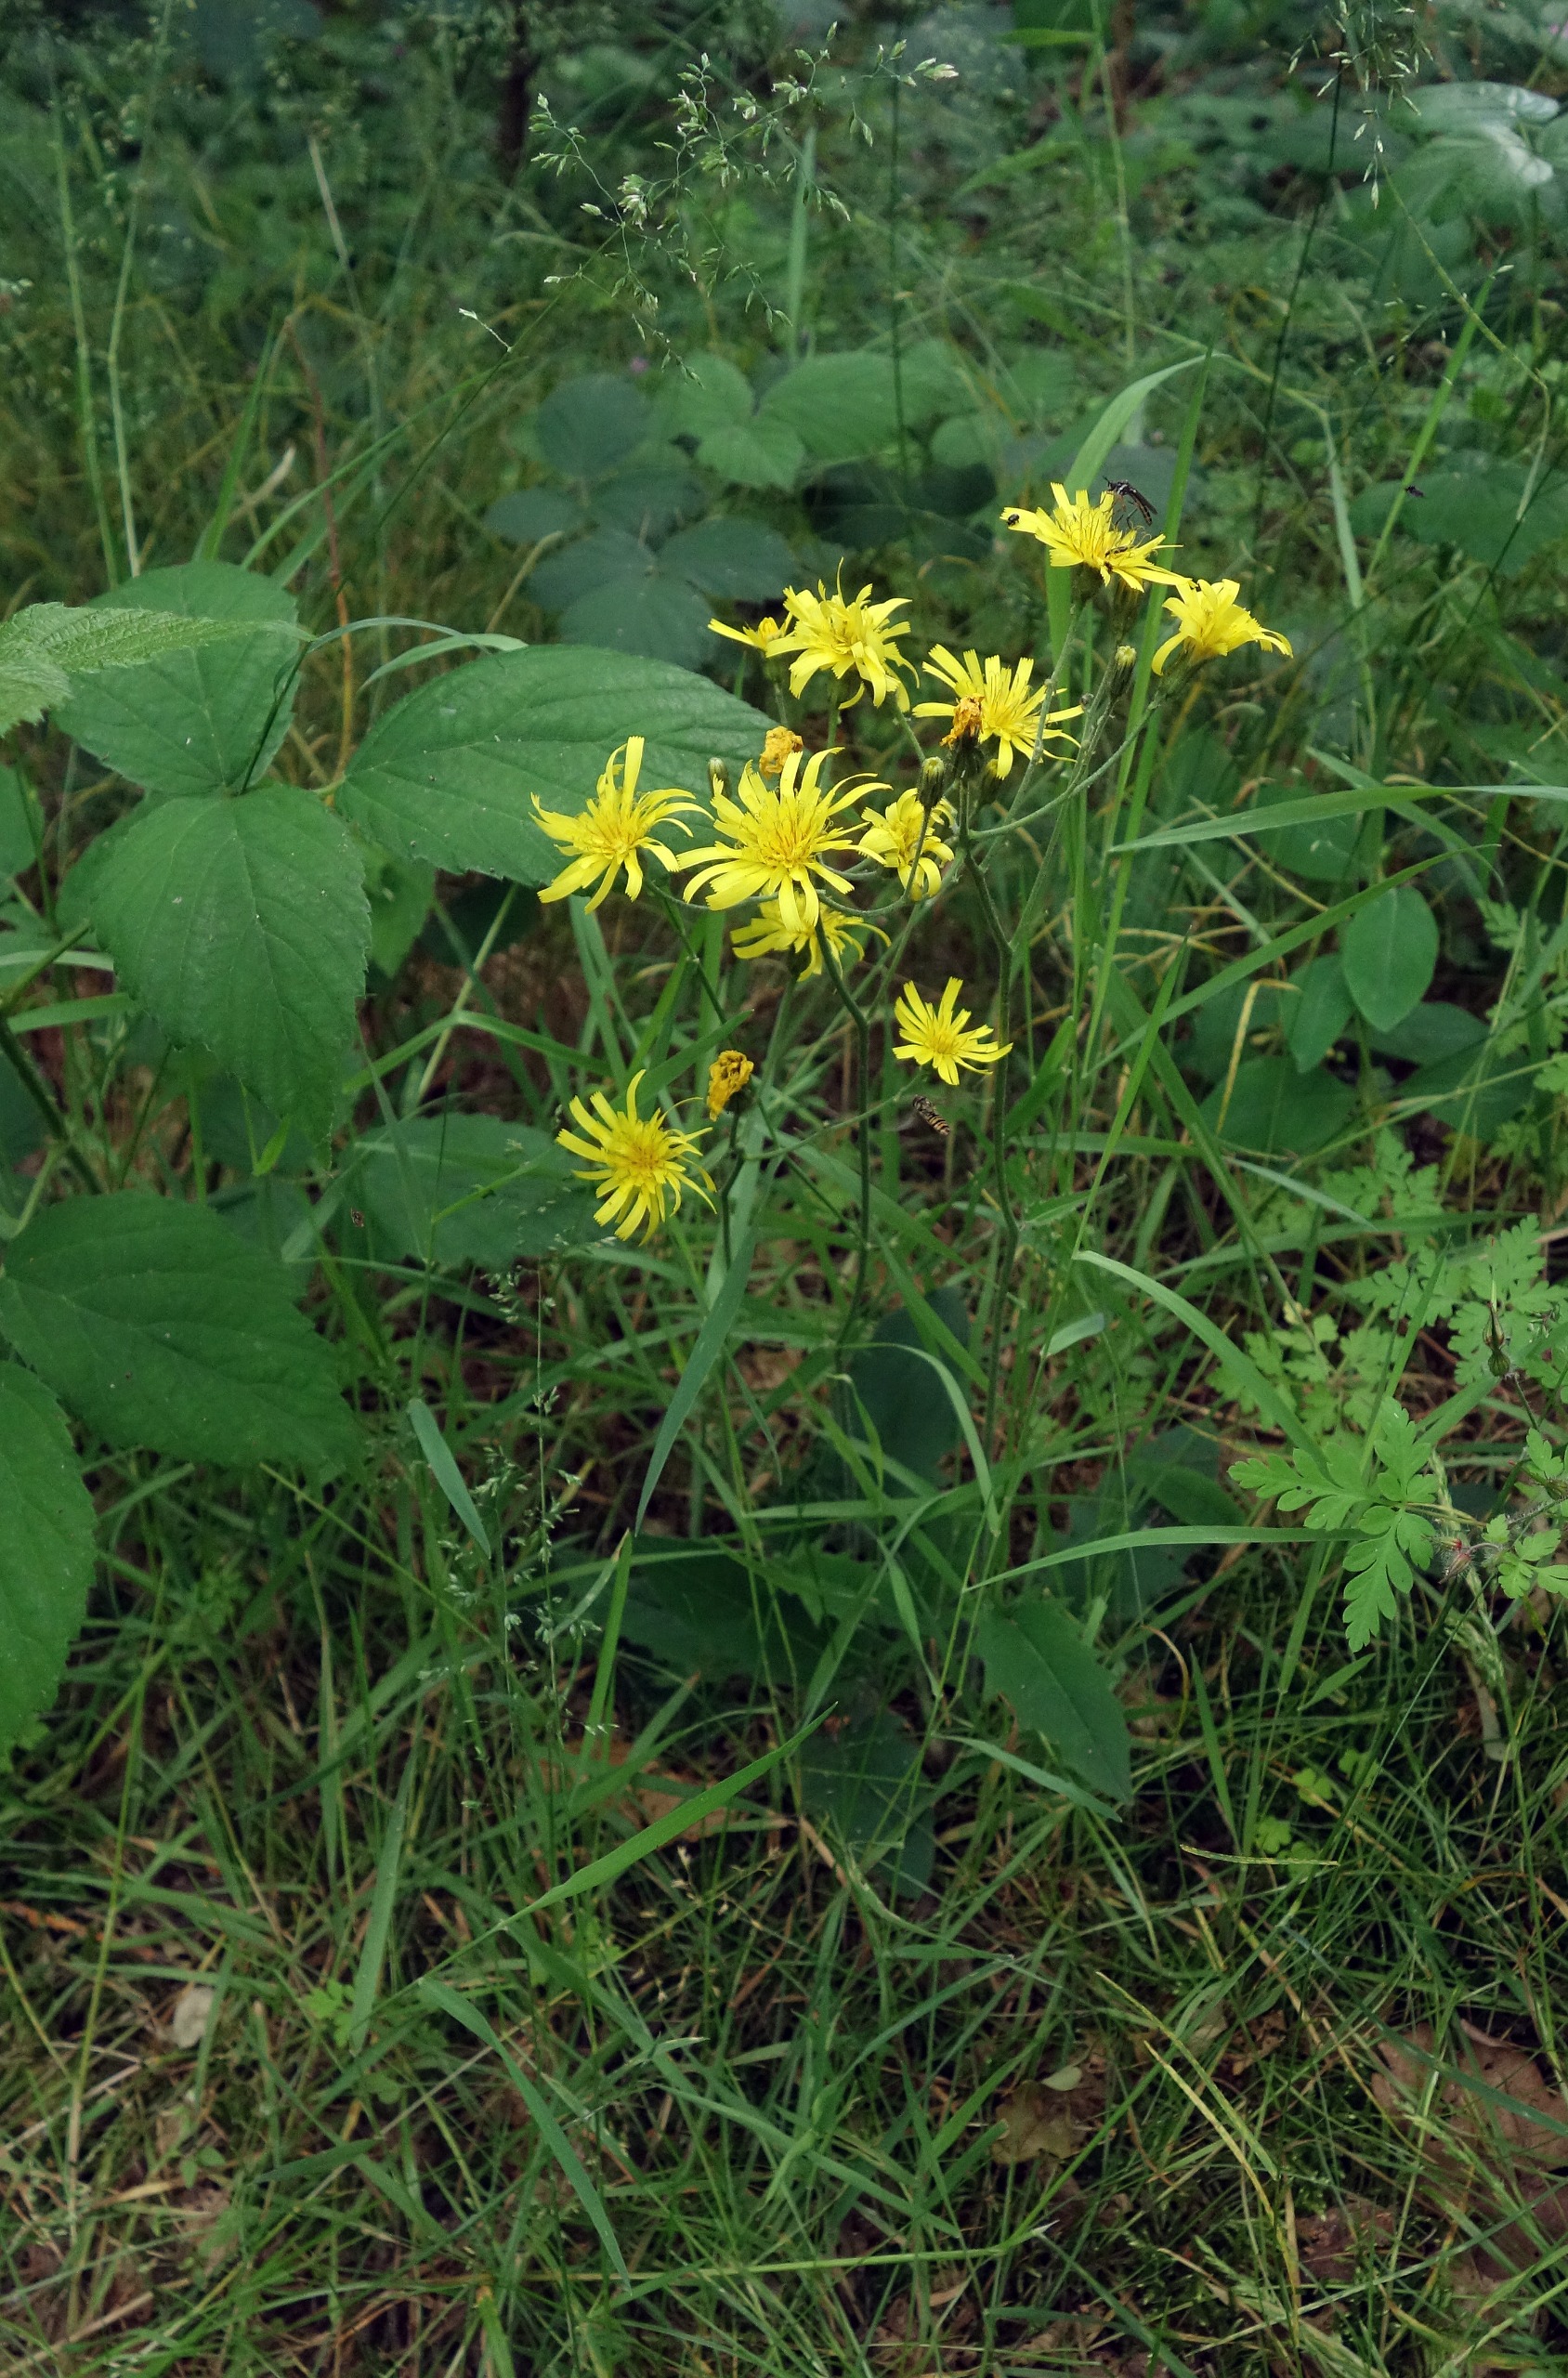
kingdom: Plantae
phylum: Tracheophyta
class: Magnoliopsida
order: Asterales
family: Asteraceae
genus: Hieracium
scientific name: Hieracium
